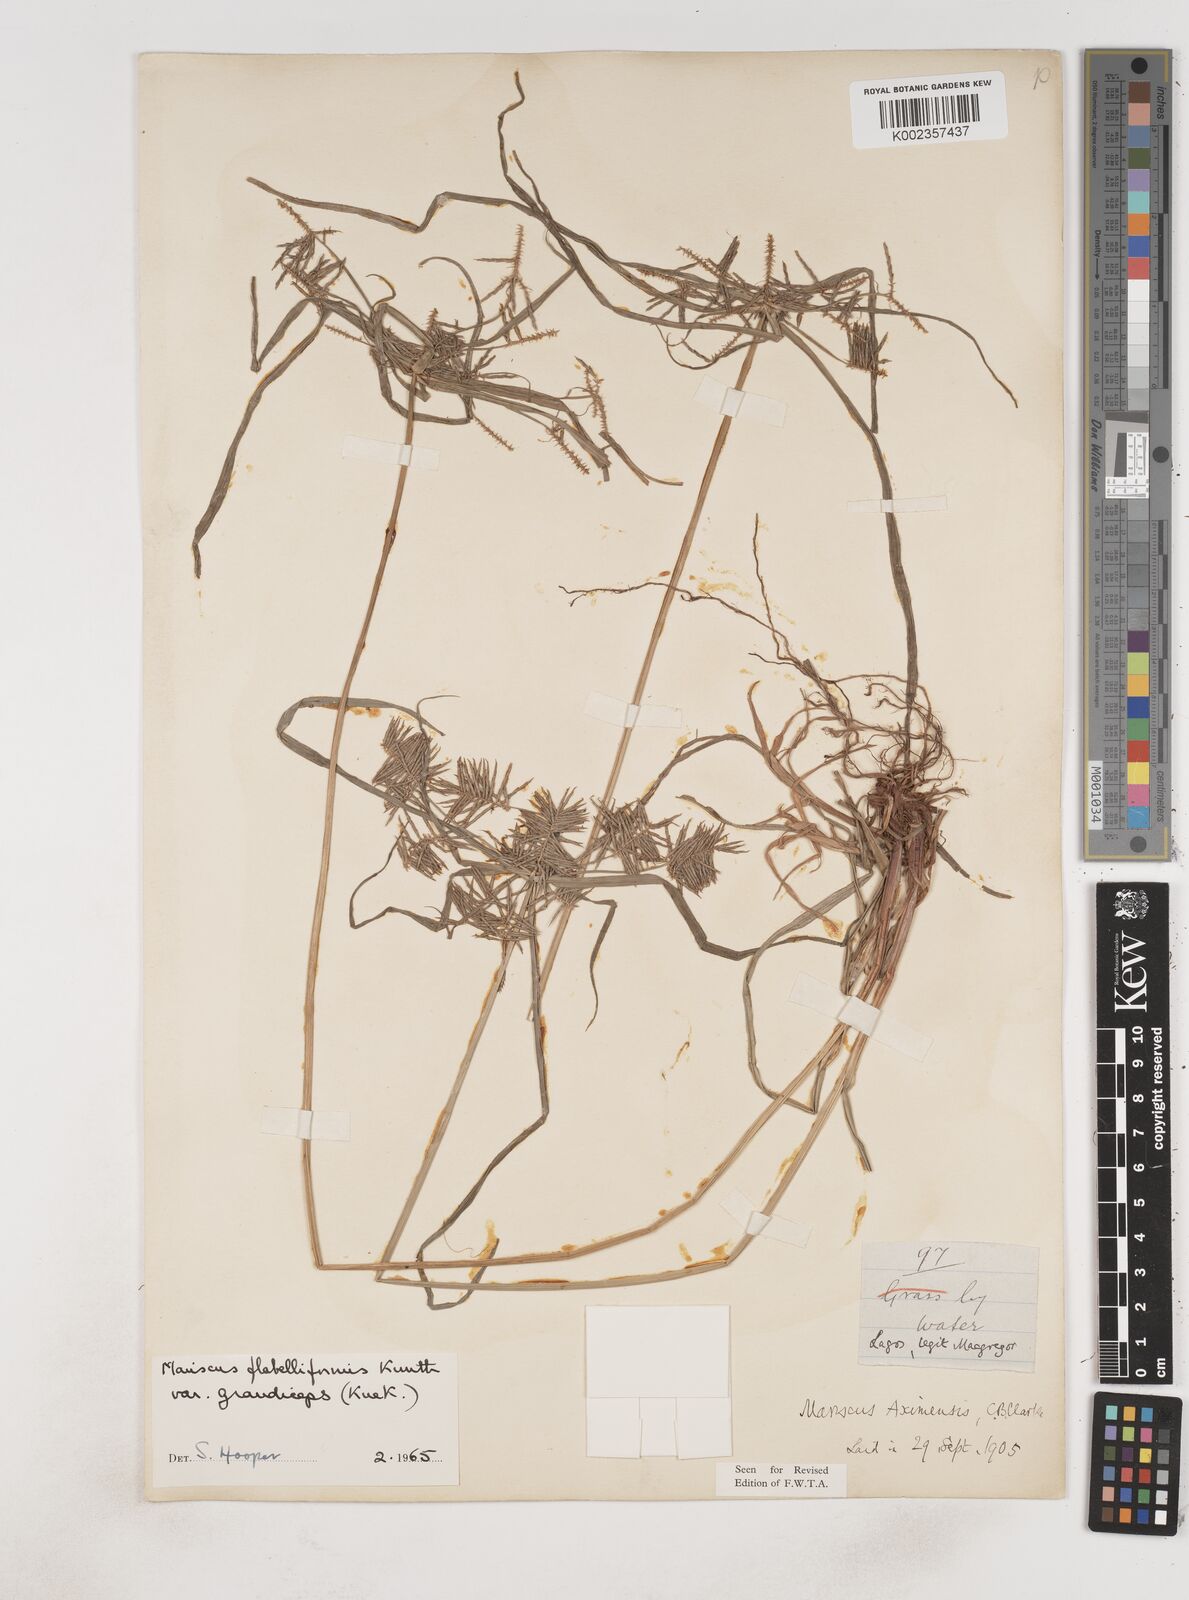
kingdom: Plantae
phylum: Tracheophyta
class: Liliopsida
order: Poales
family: Cyperaceae
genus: Cyperus
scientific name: Cyperus tenuis
